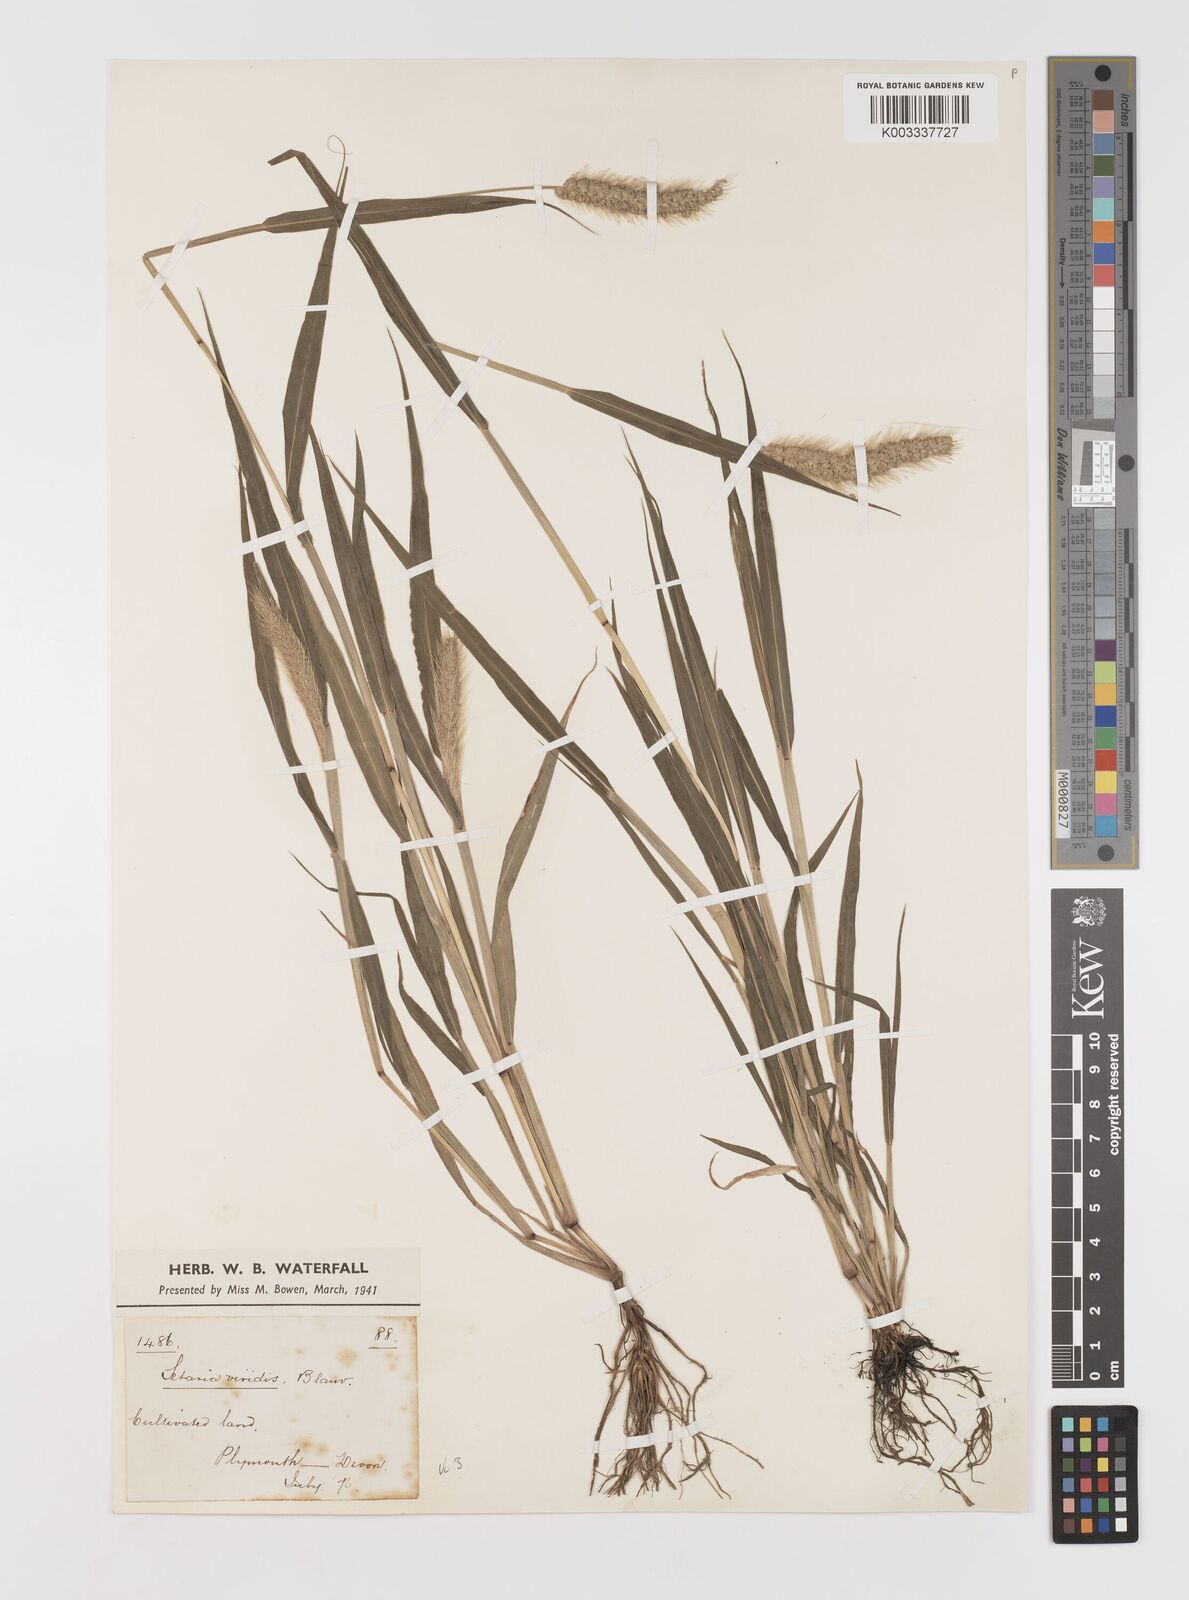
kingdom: Plantae
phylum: Tracheophyta
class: Liliopsida
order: Poales
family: Poaceae
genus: Setaria
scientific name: Setaria viridis
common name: Green bristlegrass
